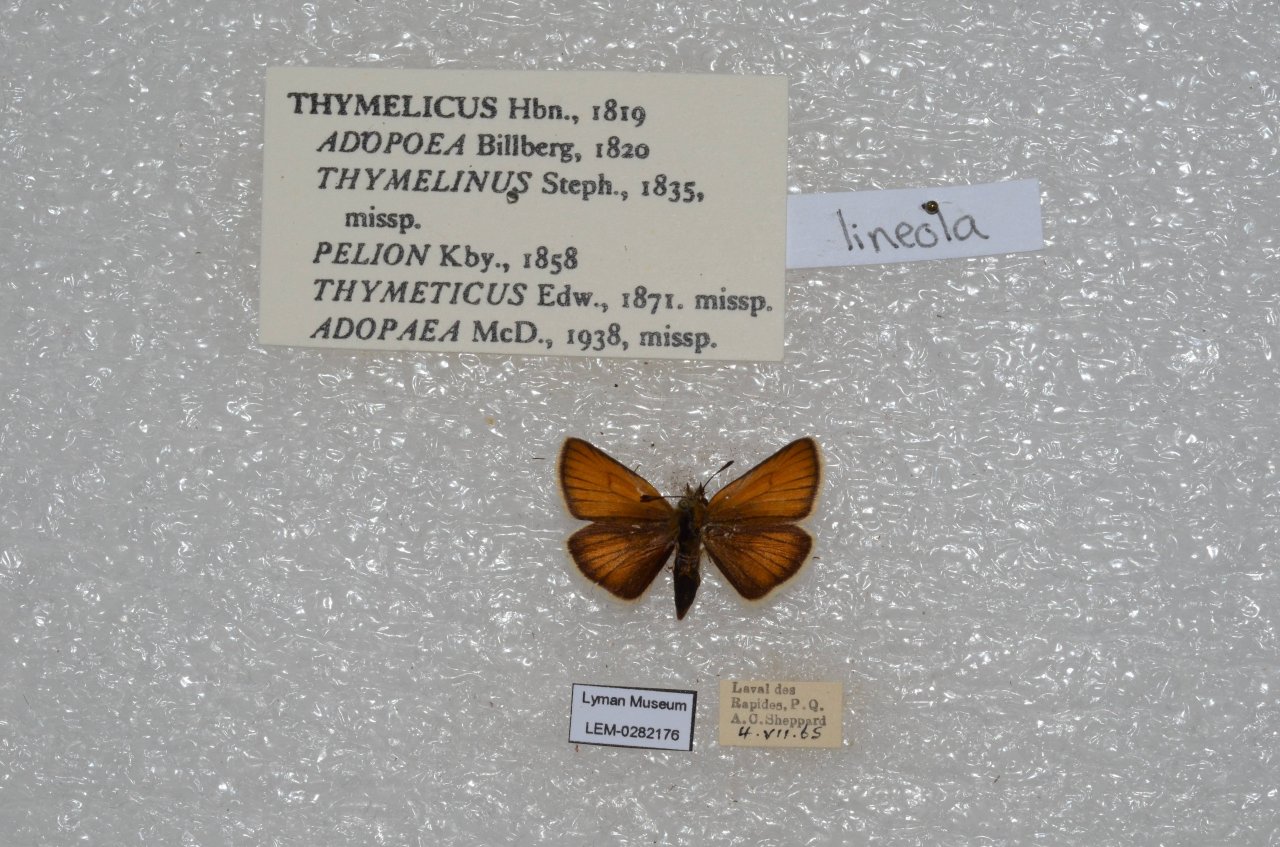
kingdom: Animalia
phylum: Arthropoda
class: Insecta
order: Lepidoptera
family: Hesperiidae
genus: Thymelicus
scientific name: Thymelicus lineola
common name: European Skipper
